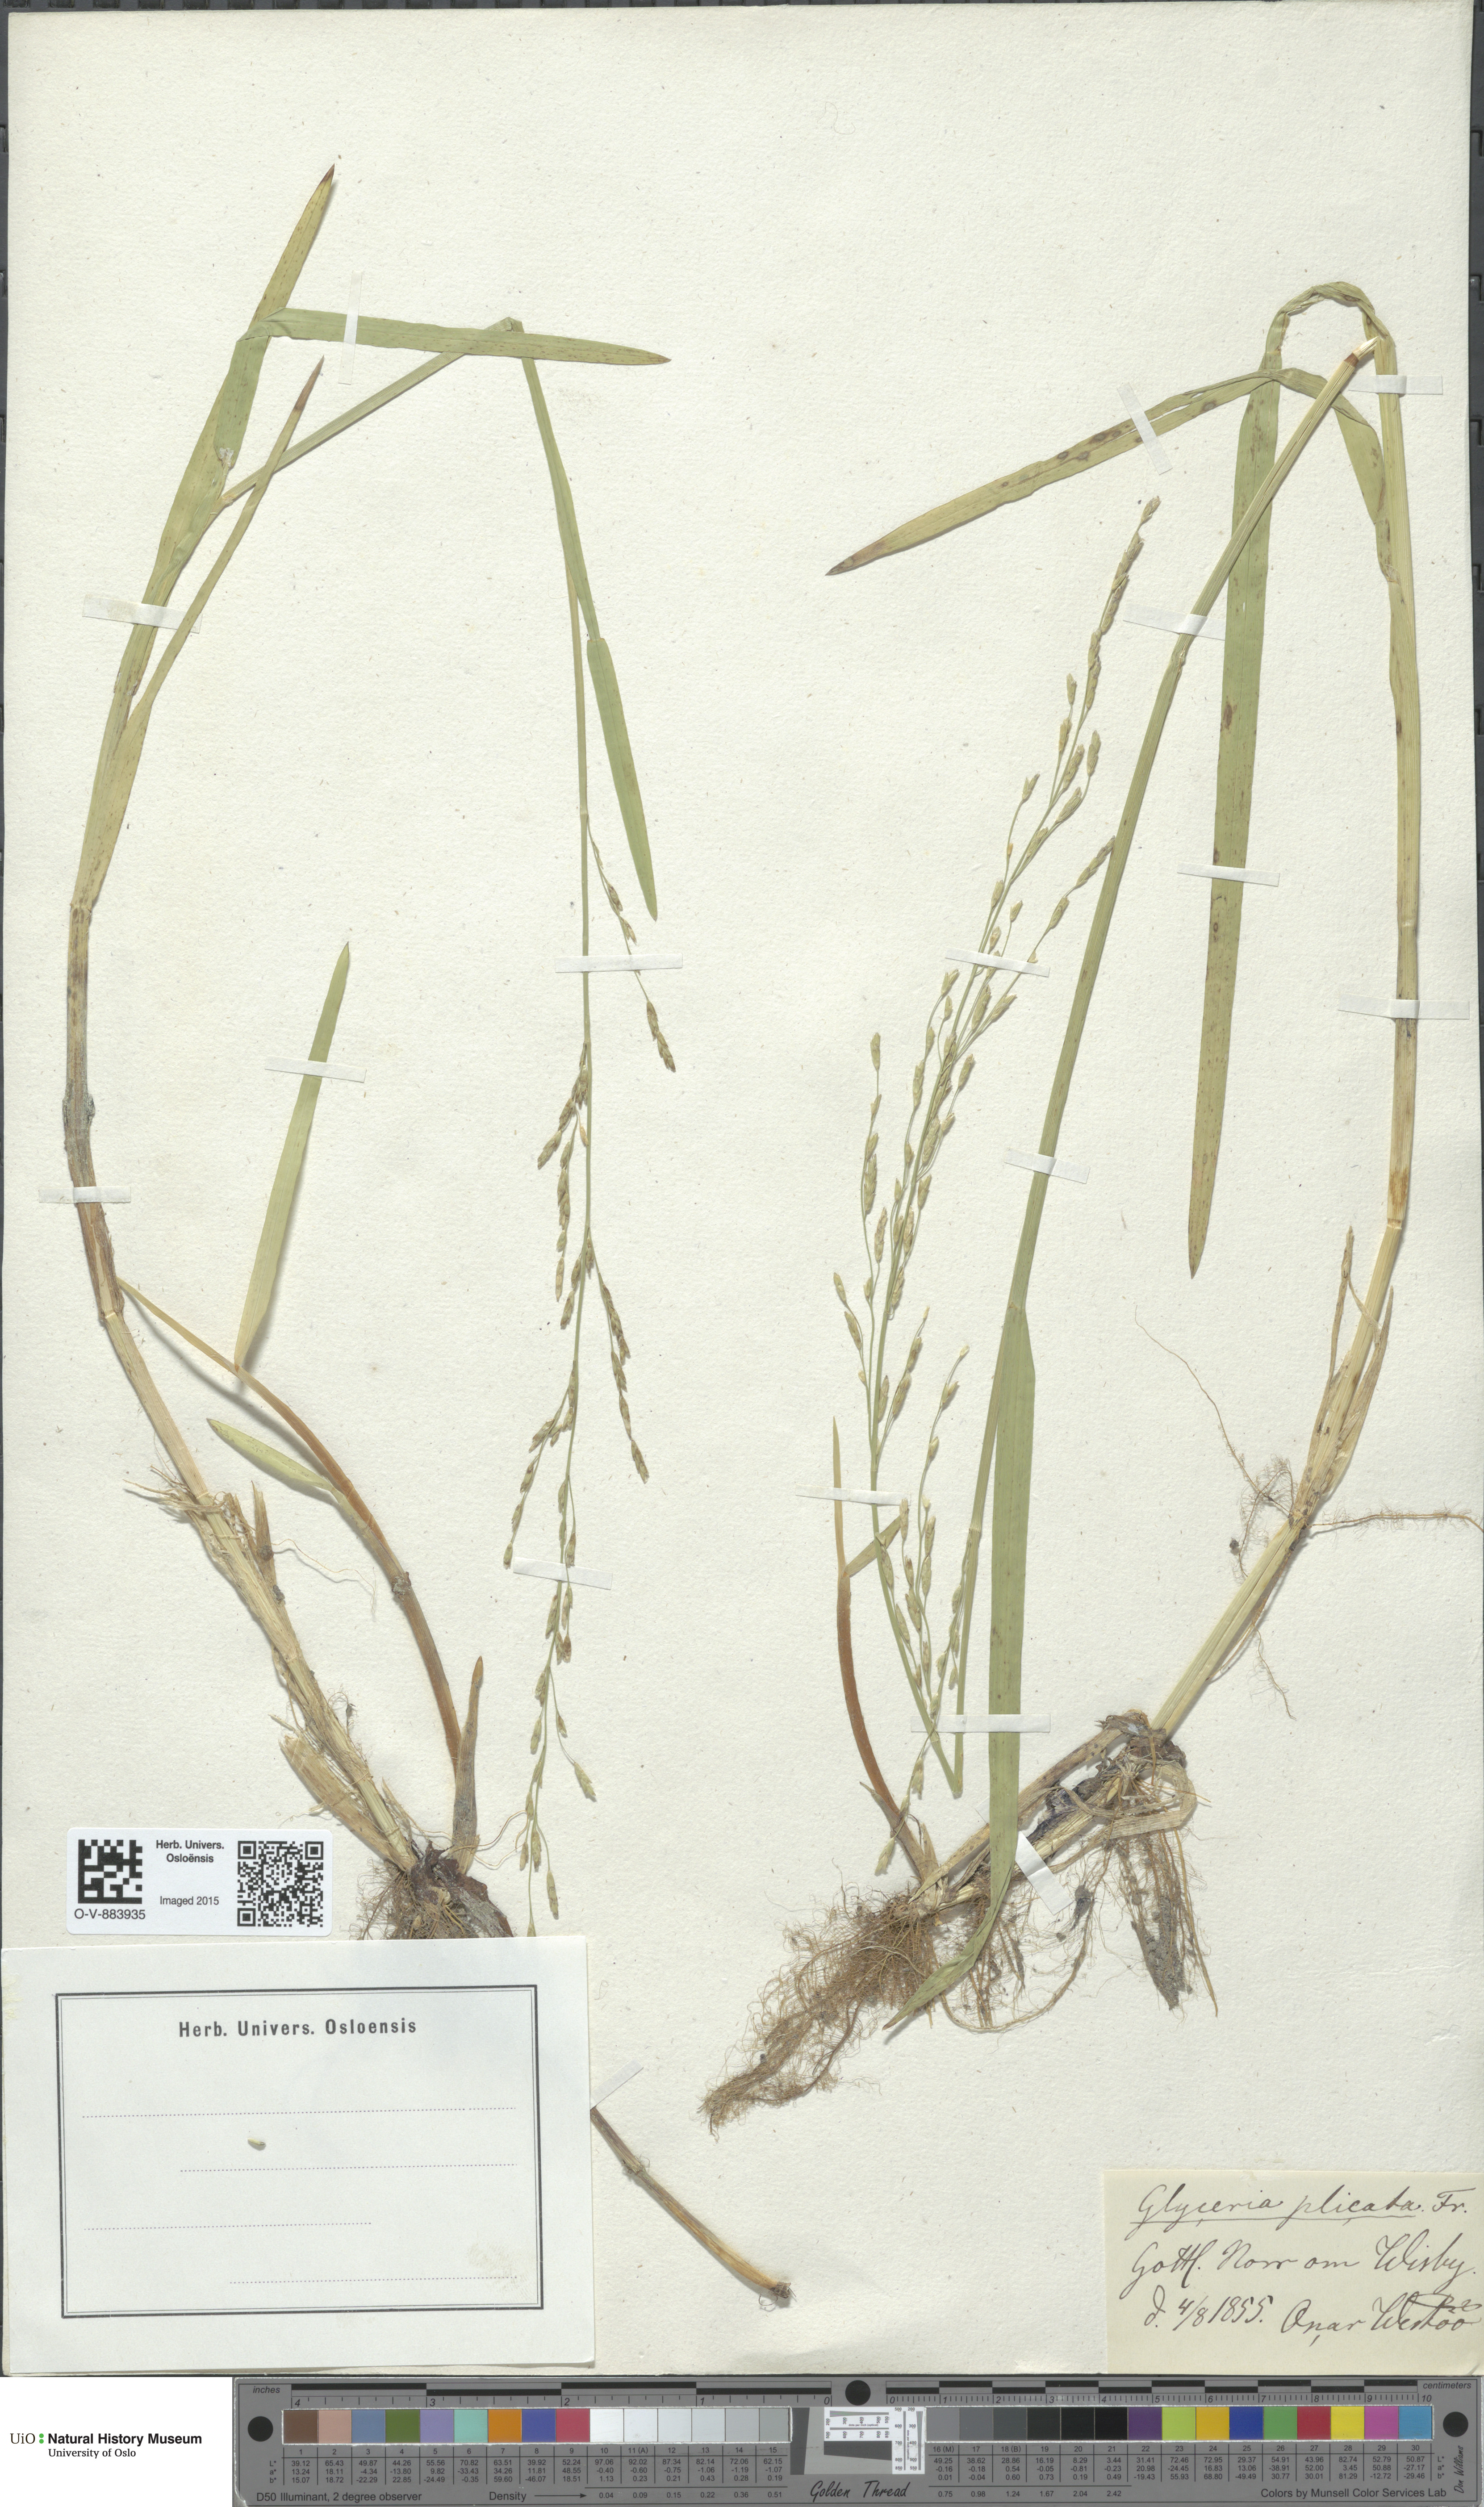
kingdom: Plantae
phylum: Tracheophyta
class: Liliopsida
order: Poales
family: Poaceae
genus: Glyceria
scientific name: Glyceria notata
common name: Plicate sweet-grass
